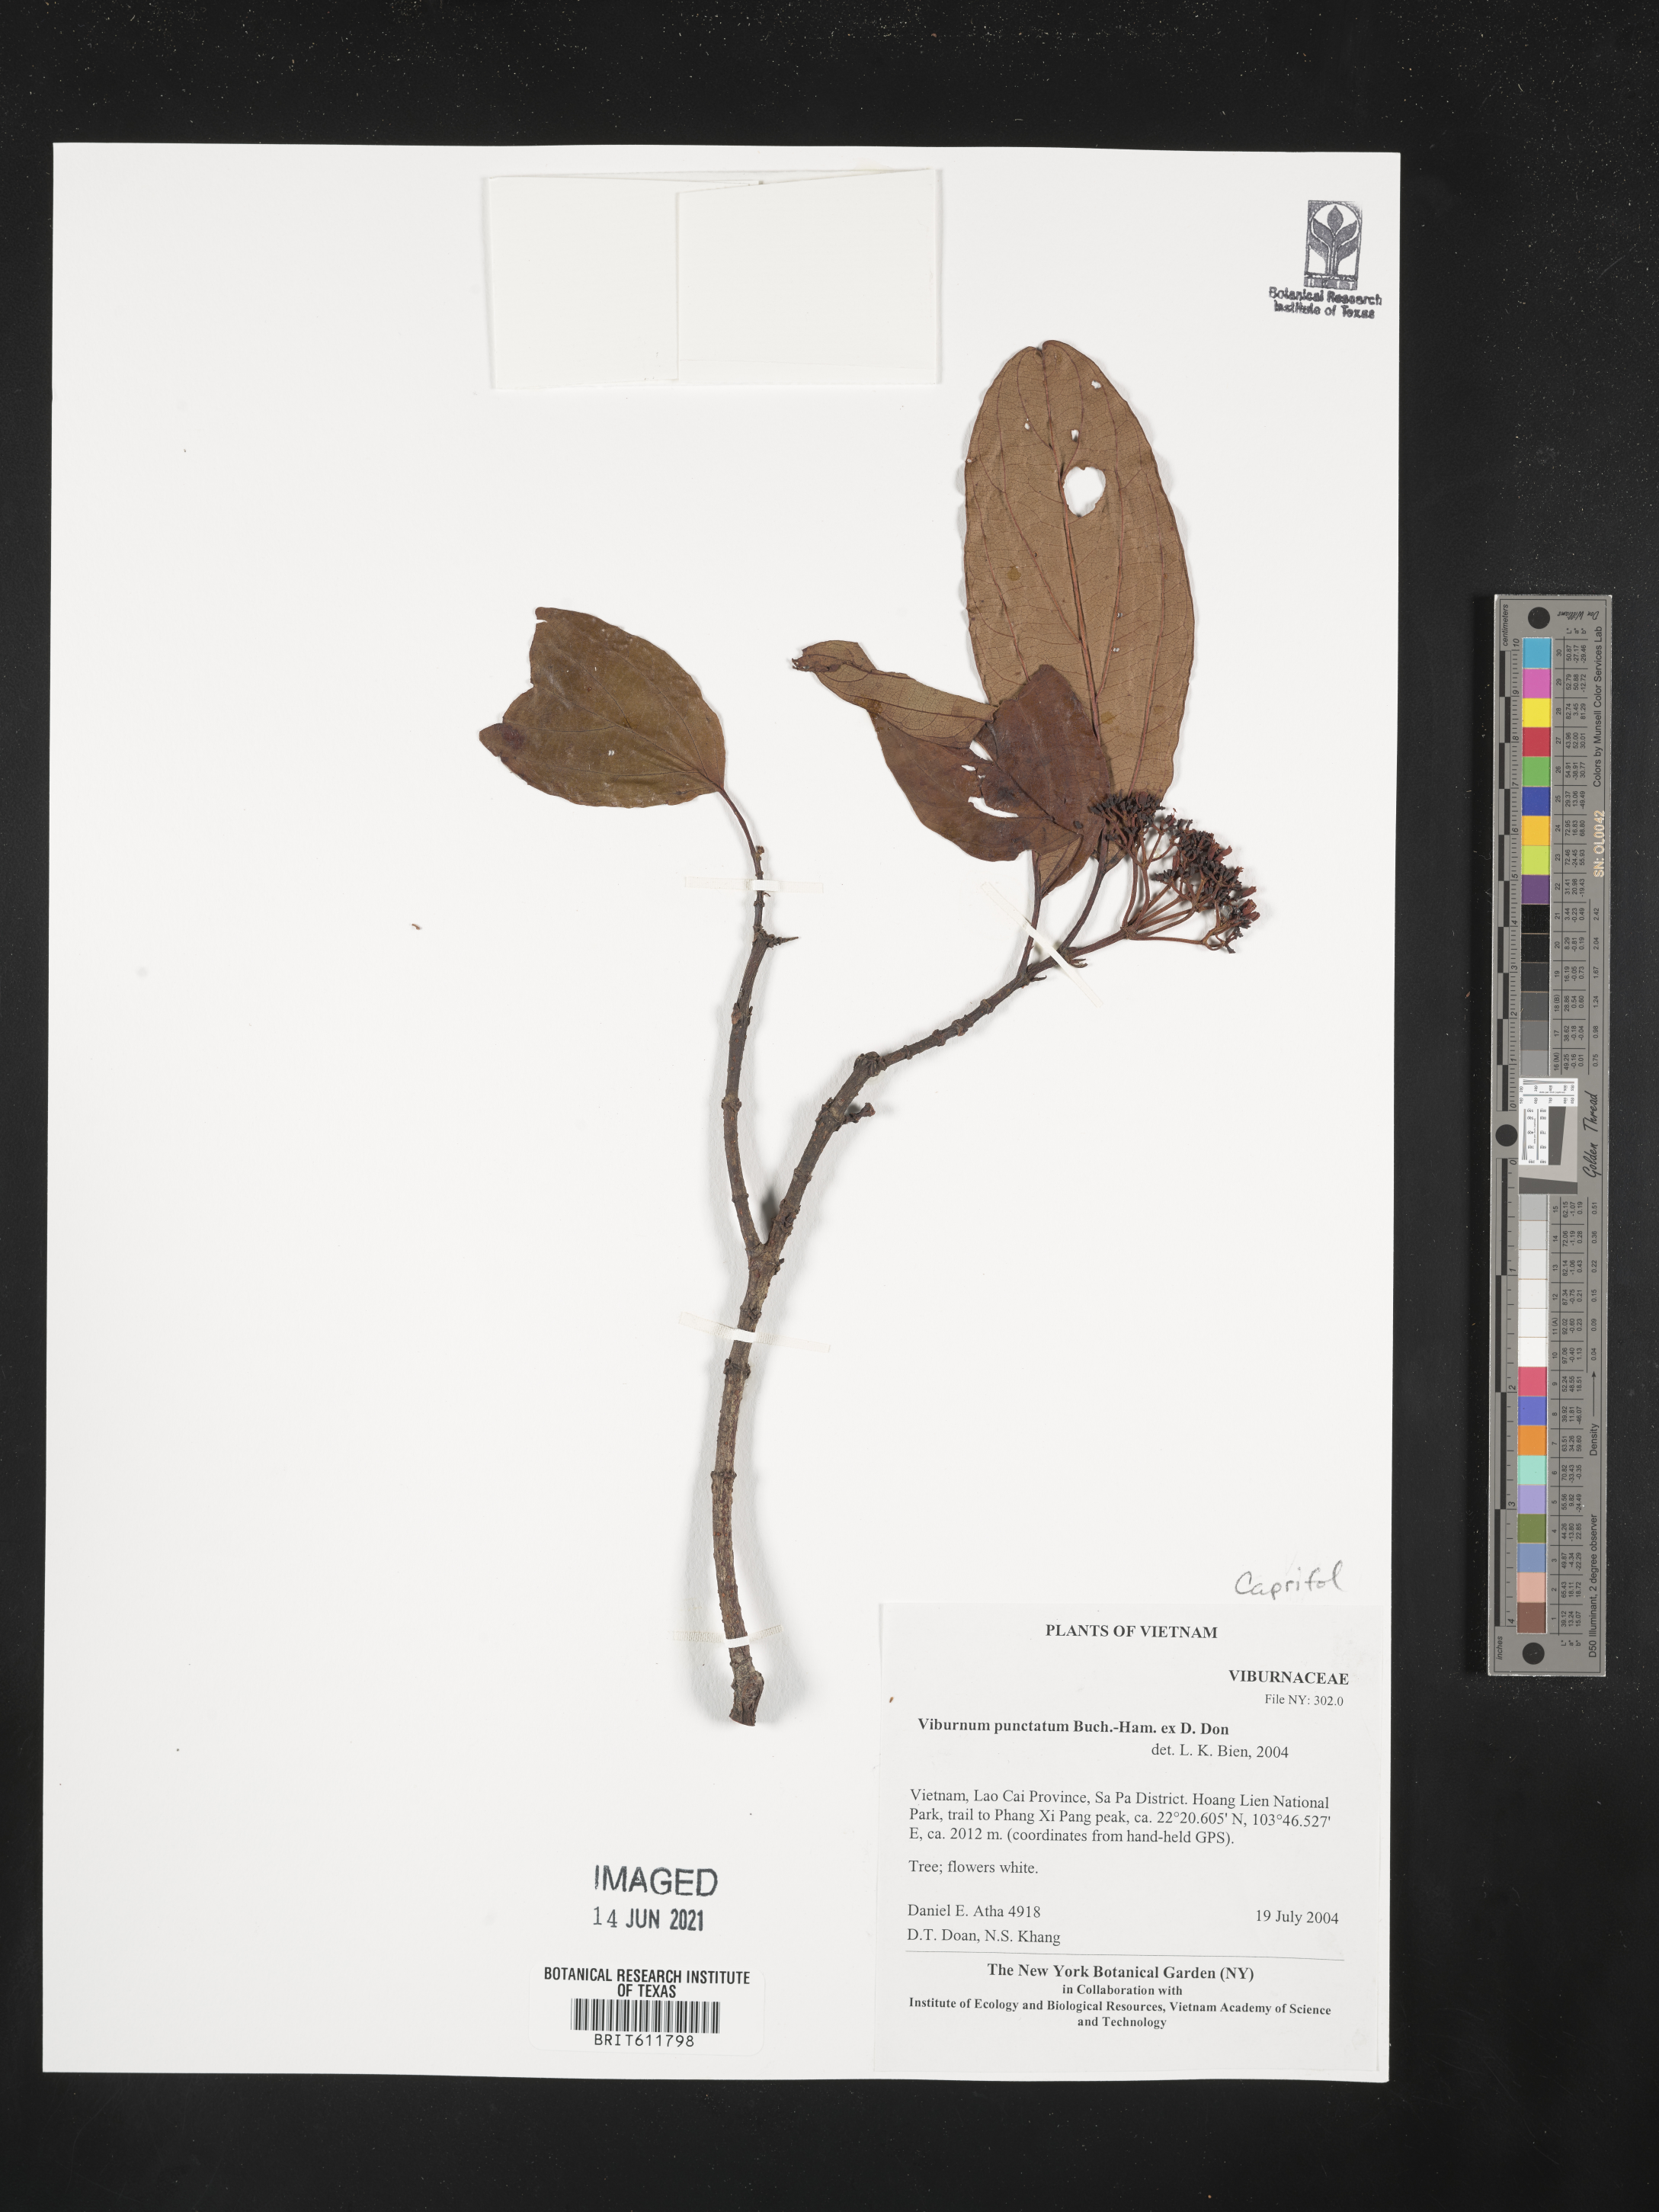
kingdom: Plantae
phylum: Tracheophyta
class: Magnoliopsida
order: Dipsacales
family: Viburnaceae
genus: Viburnum
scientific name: Viburnum punctatum
